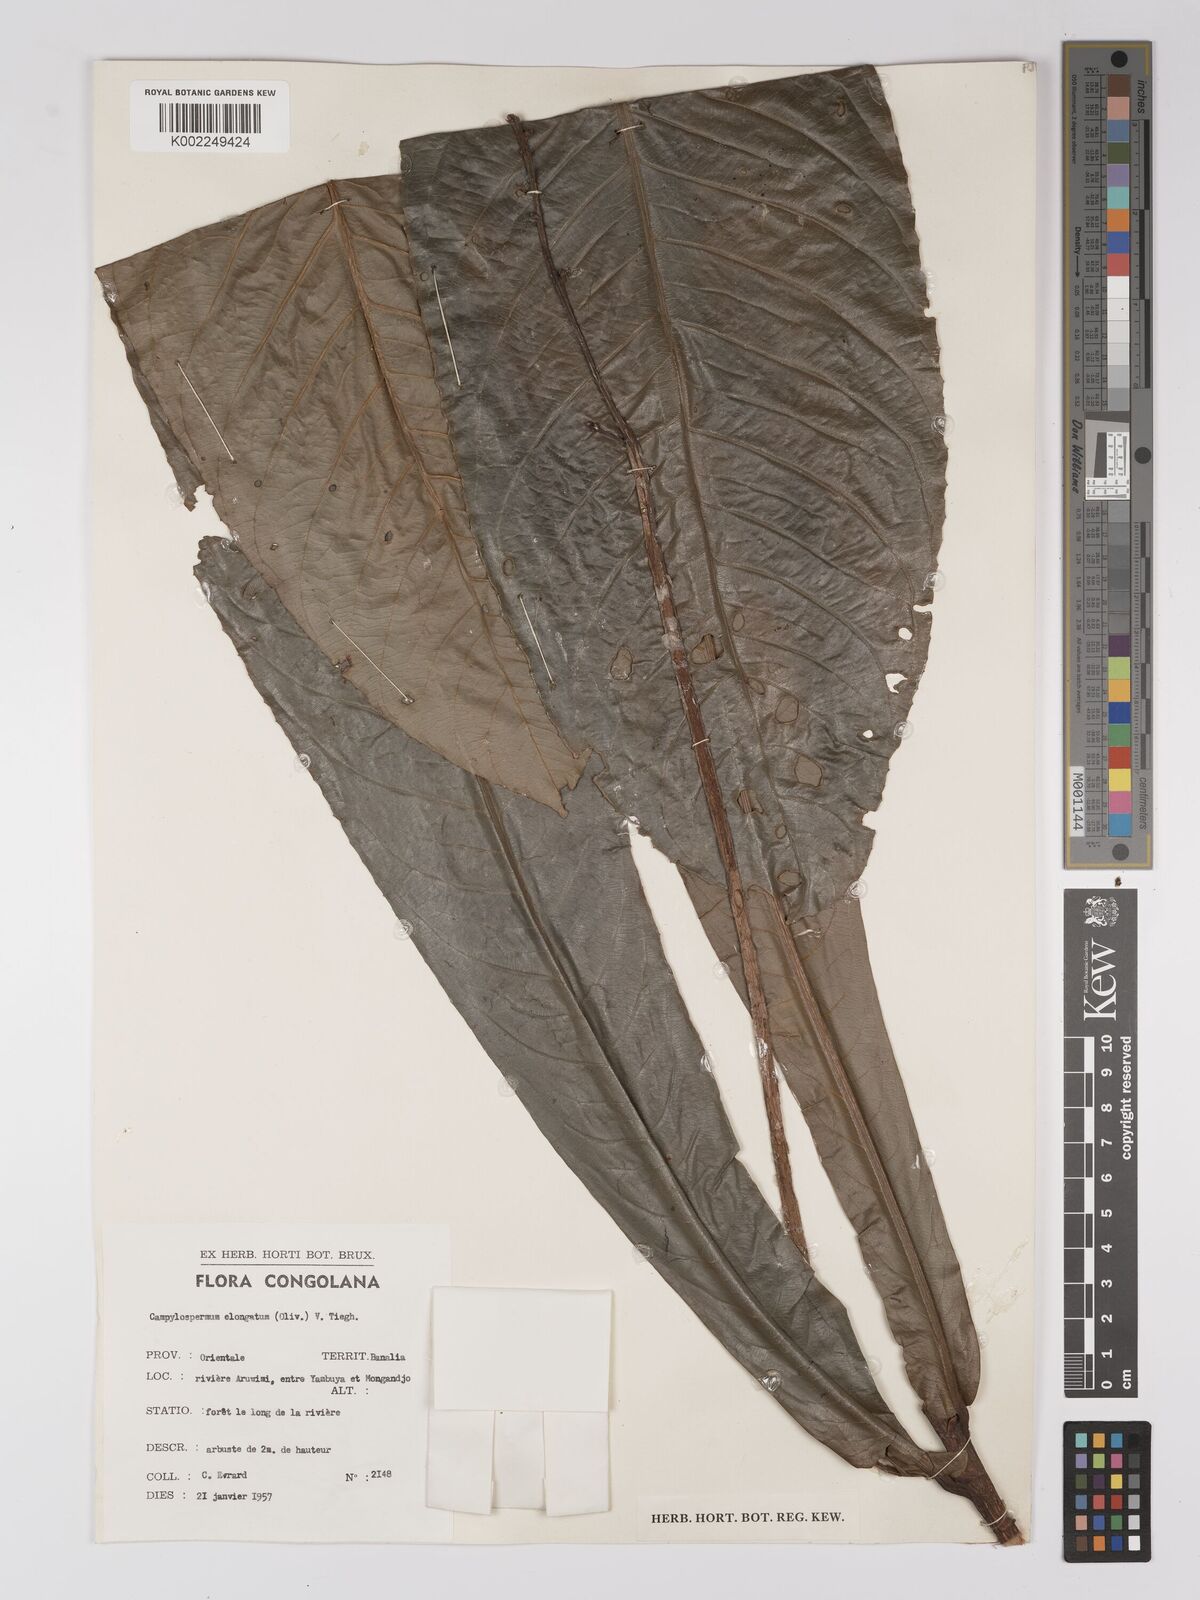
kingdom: Plantae
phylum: Tracheophyta
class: Magnoliopsida
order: Malpighiales
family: Ochnaceae
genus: Gomphia
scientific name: Gomphia elongata
